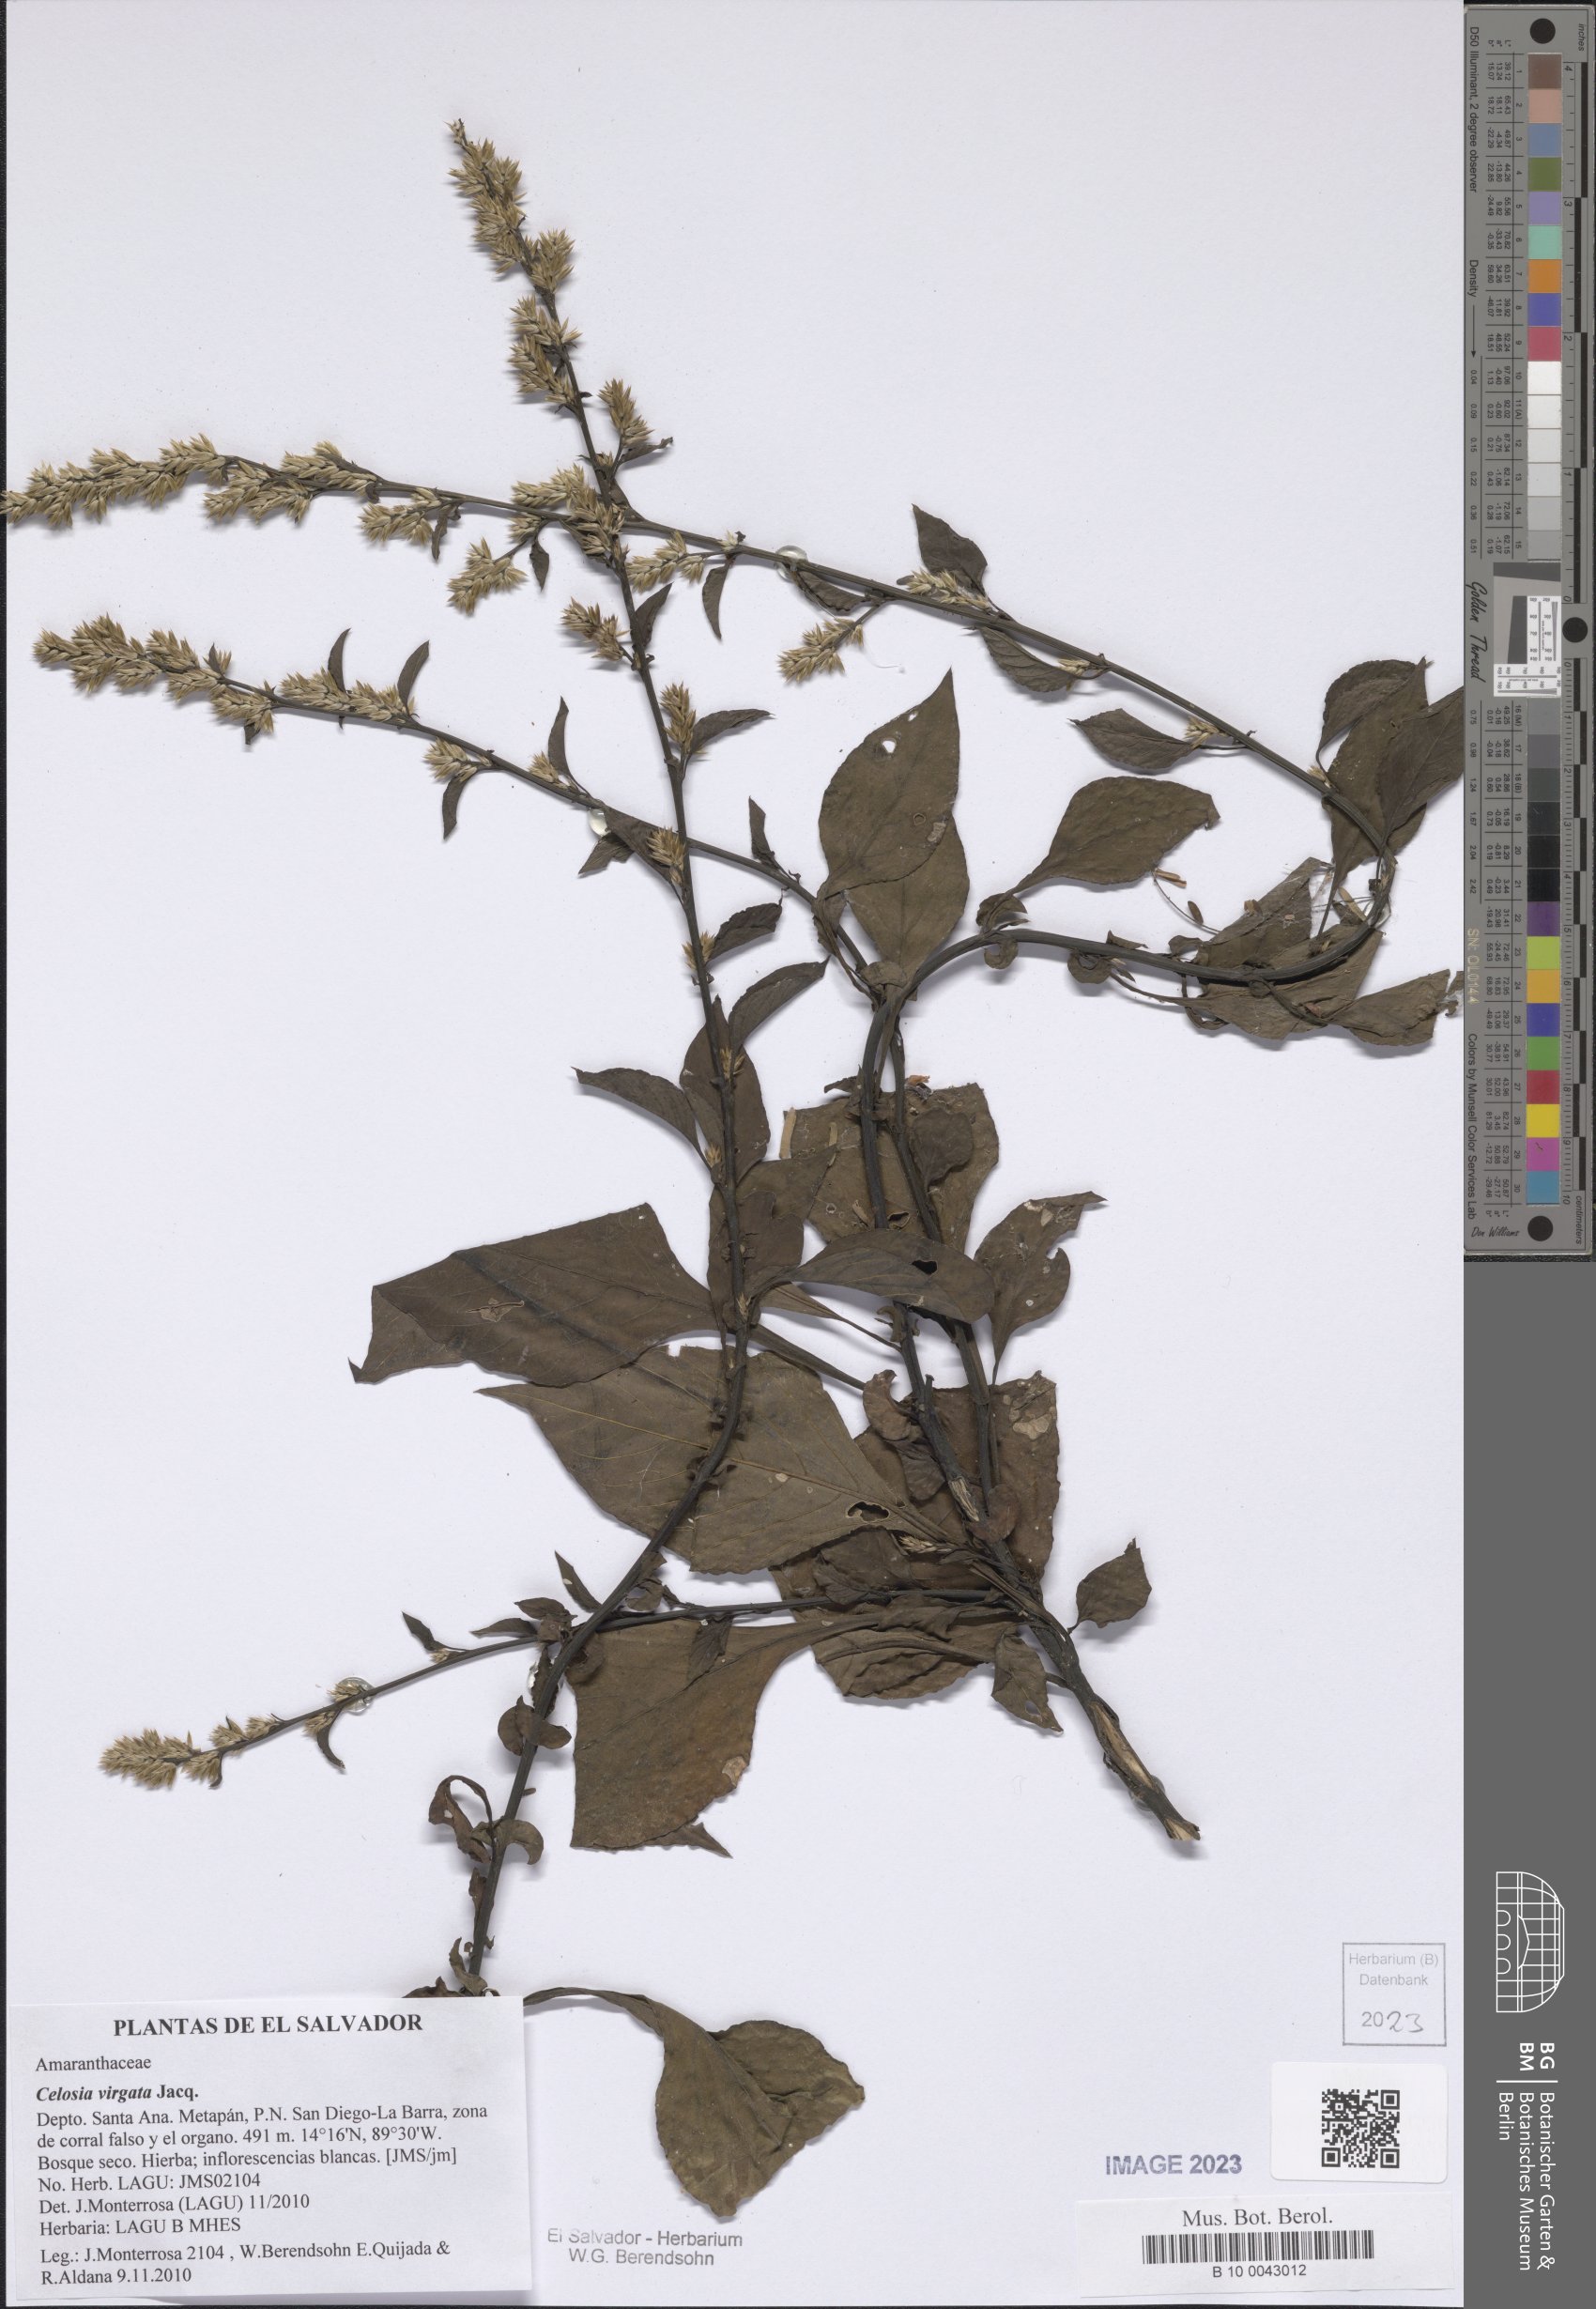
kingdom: Plantae
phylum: Tracheophyta
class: Magnoliopsida
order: Caryophyllales
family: Amaranthaceae
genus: Celosia
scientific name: Celosia virgata
